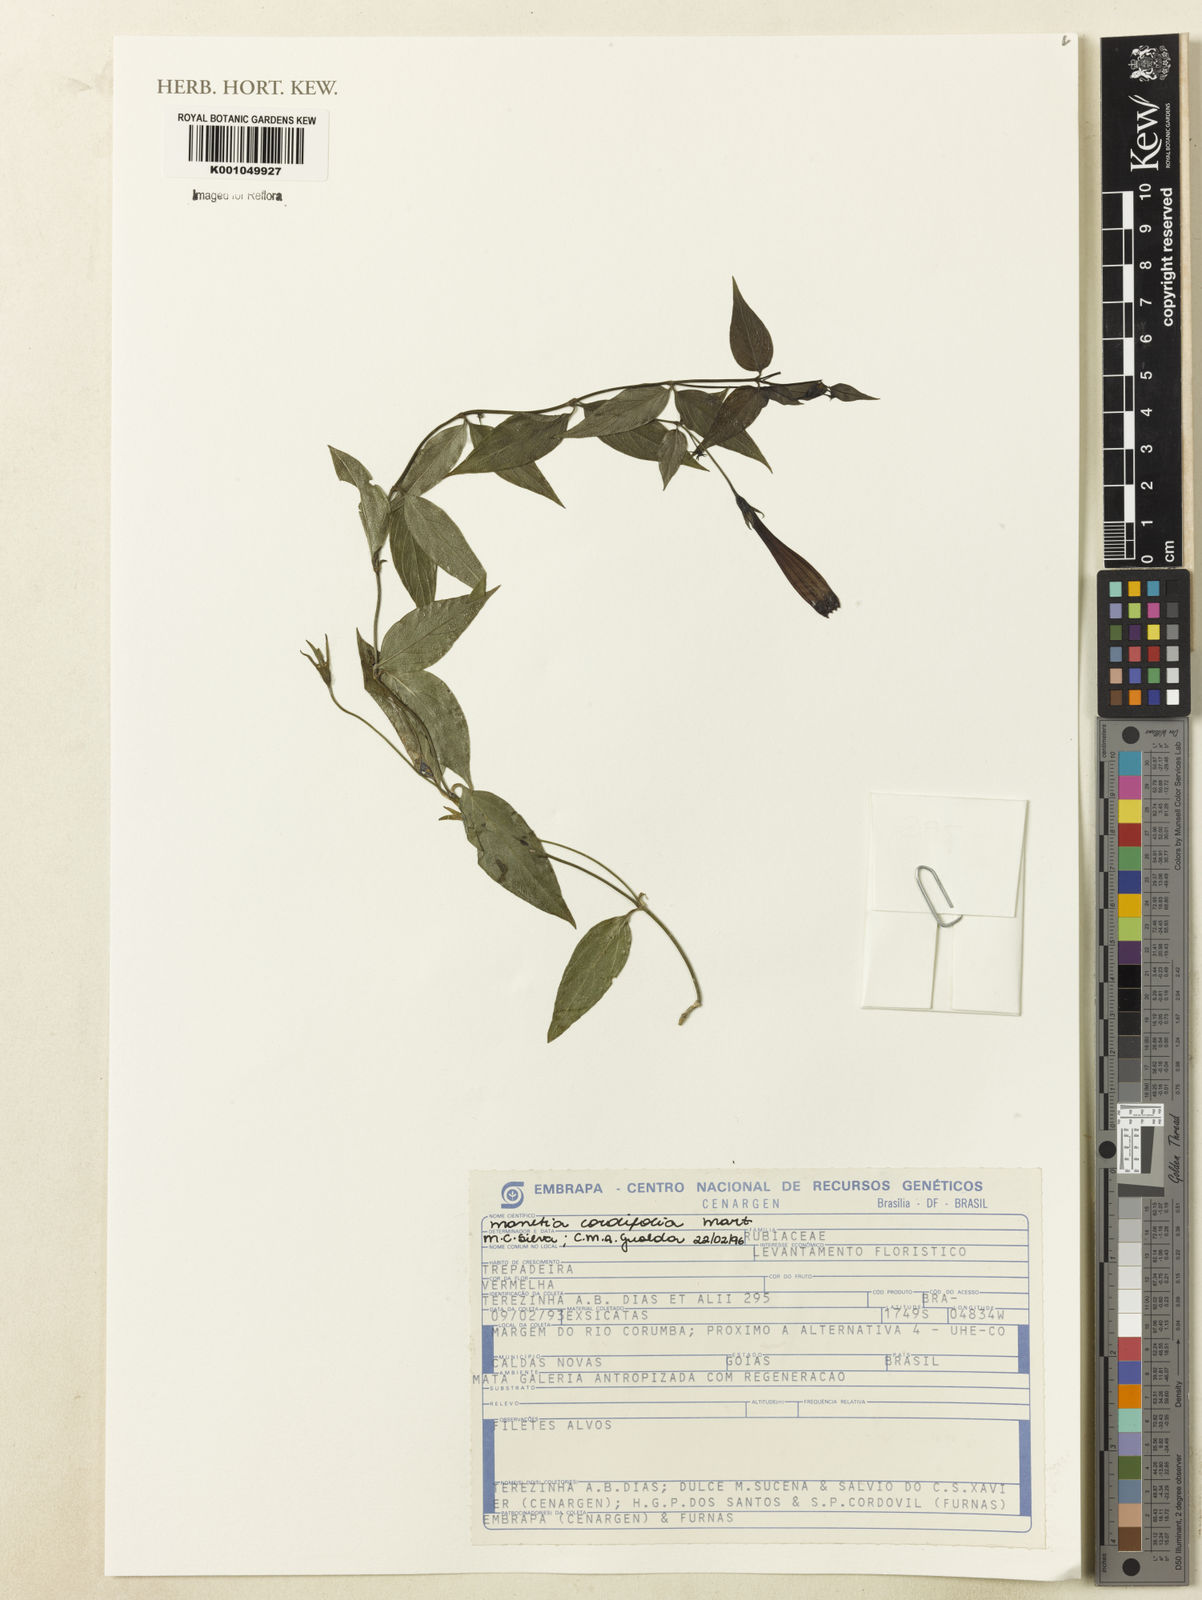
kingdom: Plantae
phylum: Tracheophyta
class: Magnoliopsida
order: Gentianales
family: Rubiaceae
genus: Manettia
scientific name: Manettia cordifolia
